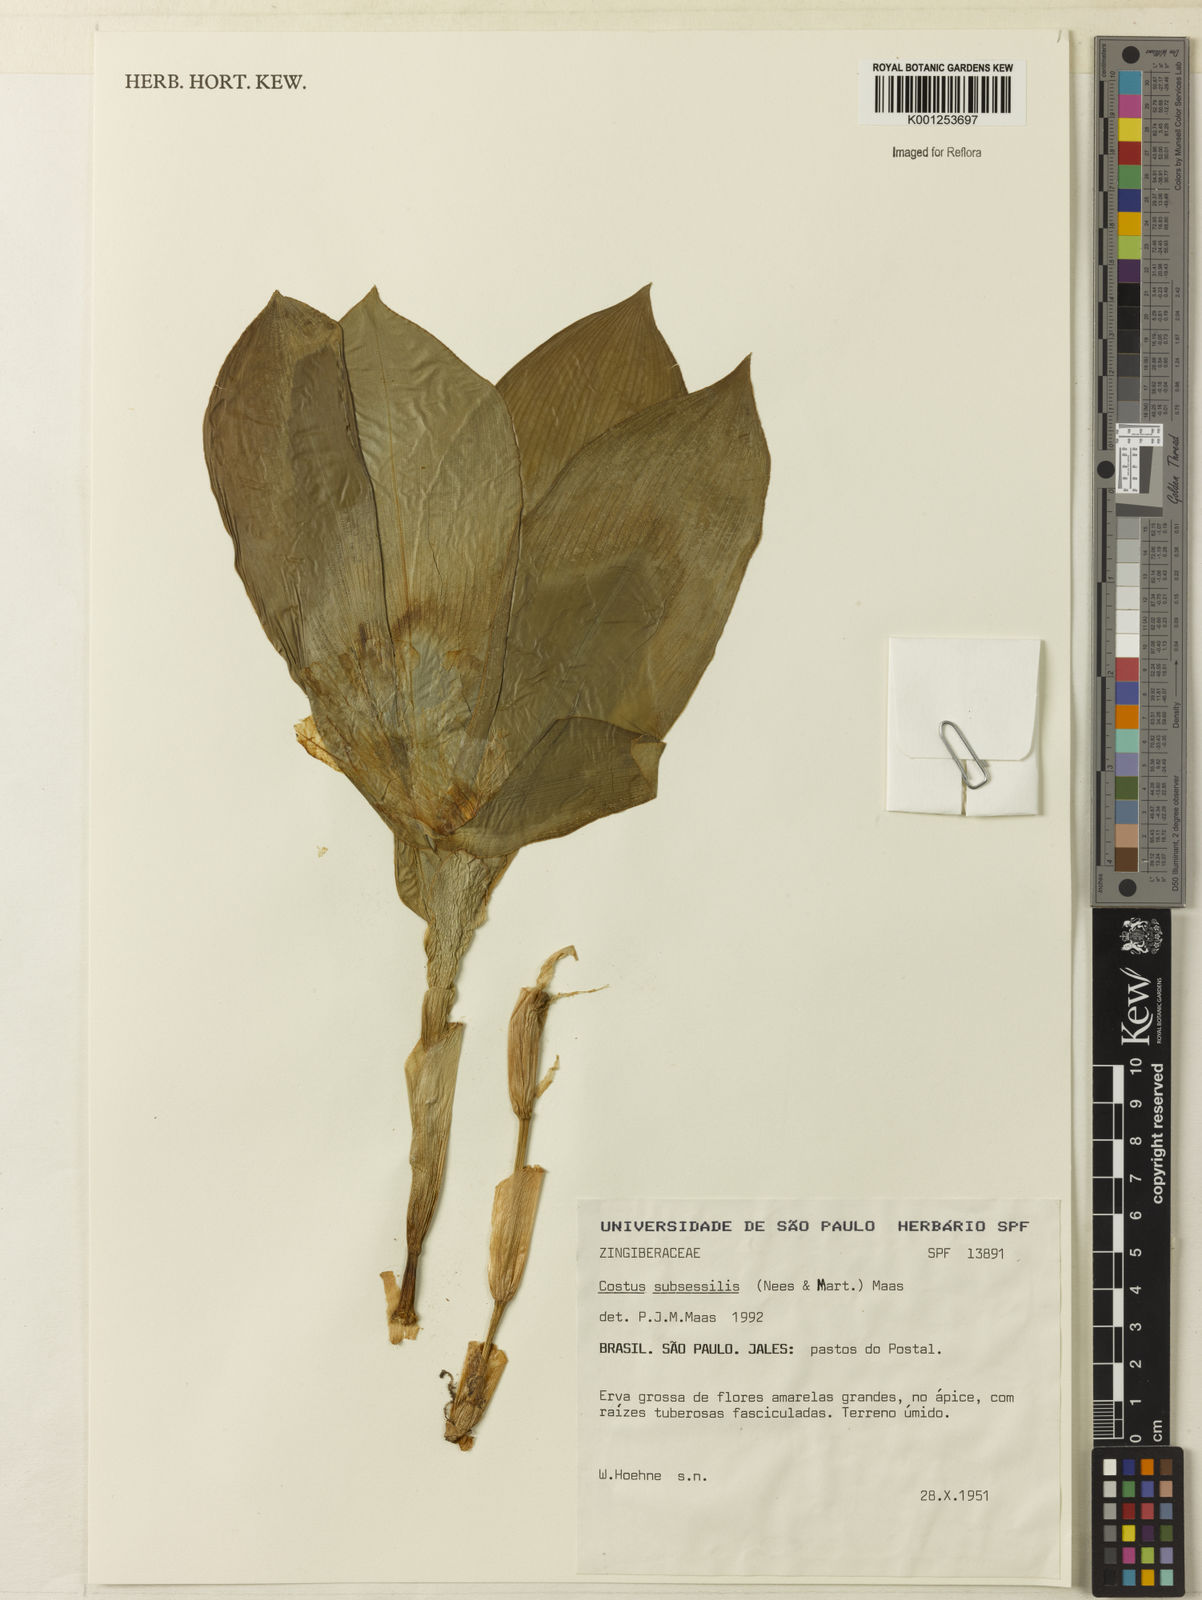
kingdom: Plantae
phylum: Tracheophyta
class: Liliopsida
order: Zingiberales
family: Costaceae
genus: Chamaecostus
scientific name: Chamaecostus subsessilis
